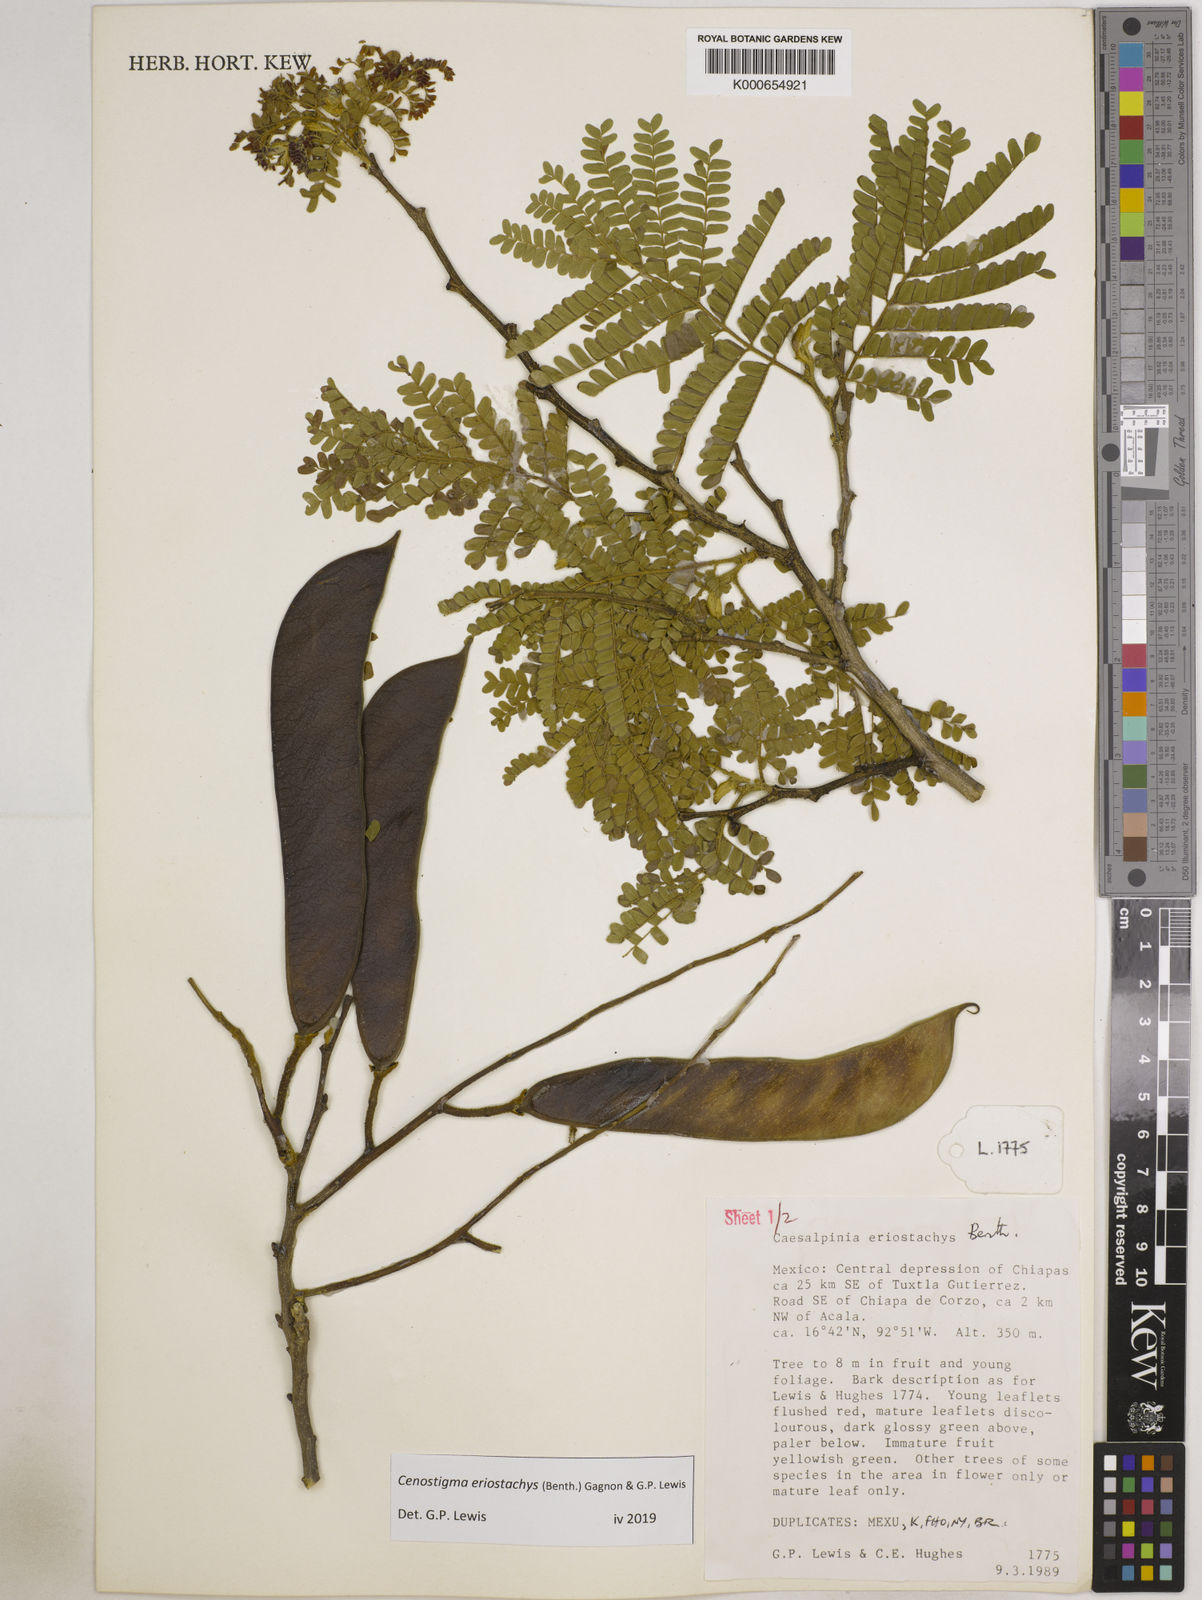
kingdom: Plantae
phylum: Tracheophyta
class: Magnoliopsida
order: Fabales
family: Fabaceae
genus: Cenostigma
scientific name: Cenostigma eriostachys
